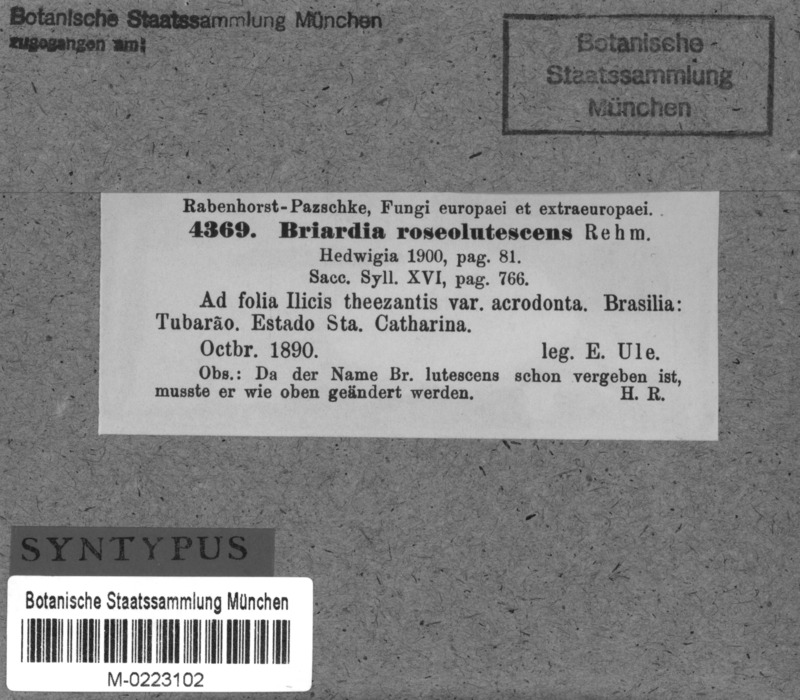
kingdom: Fungi
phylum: Ascomycota
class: Leotiomycetes
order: Helotiales
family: Calloriaceae
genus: Briardia
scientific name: Briardia lutescens
